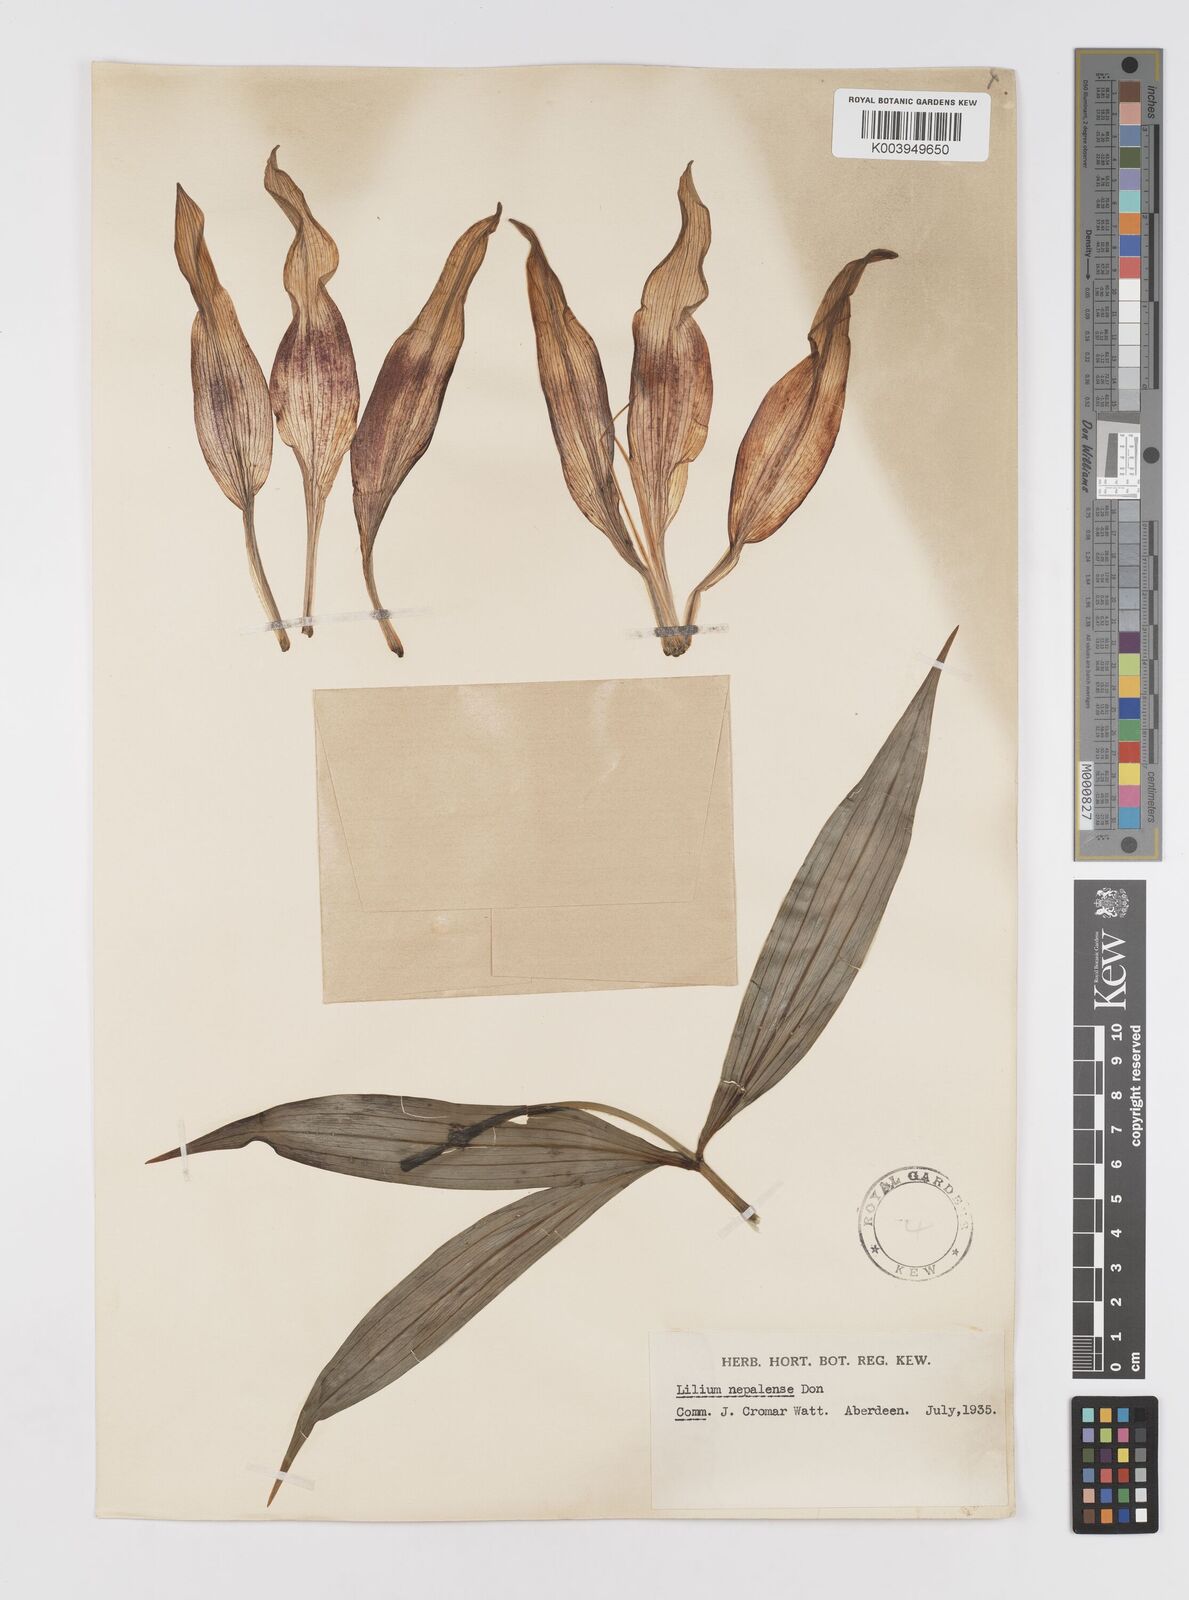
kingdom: Plantae
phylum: Tracheophyta
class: Liliopsida
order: Liliales
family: Liliaceae
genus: Lilium
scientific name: Lilium nepalense
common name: Nepal lily
